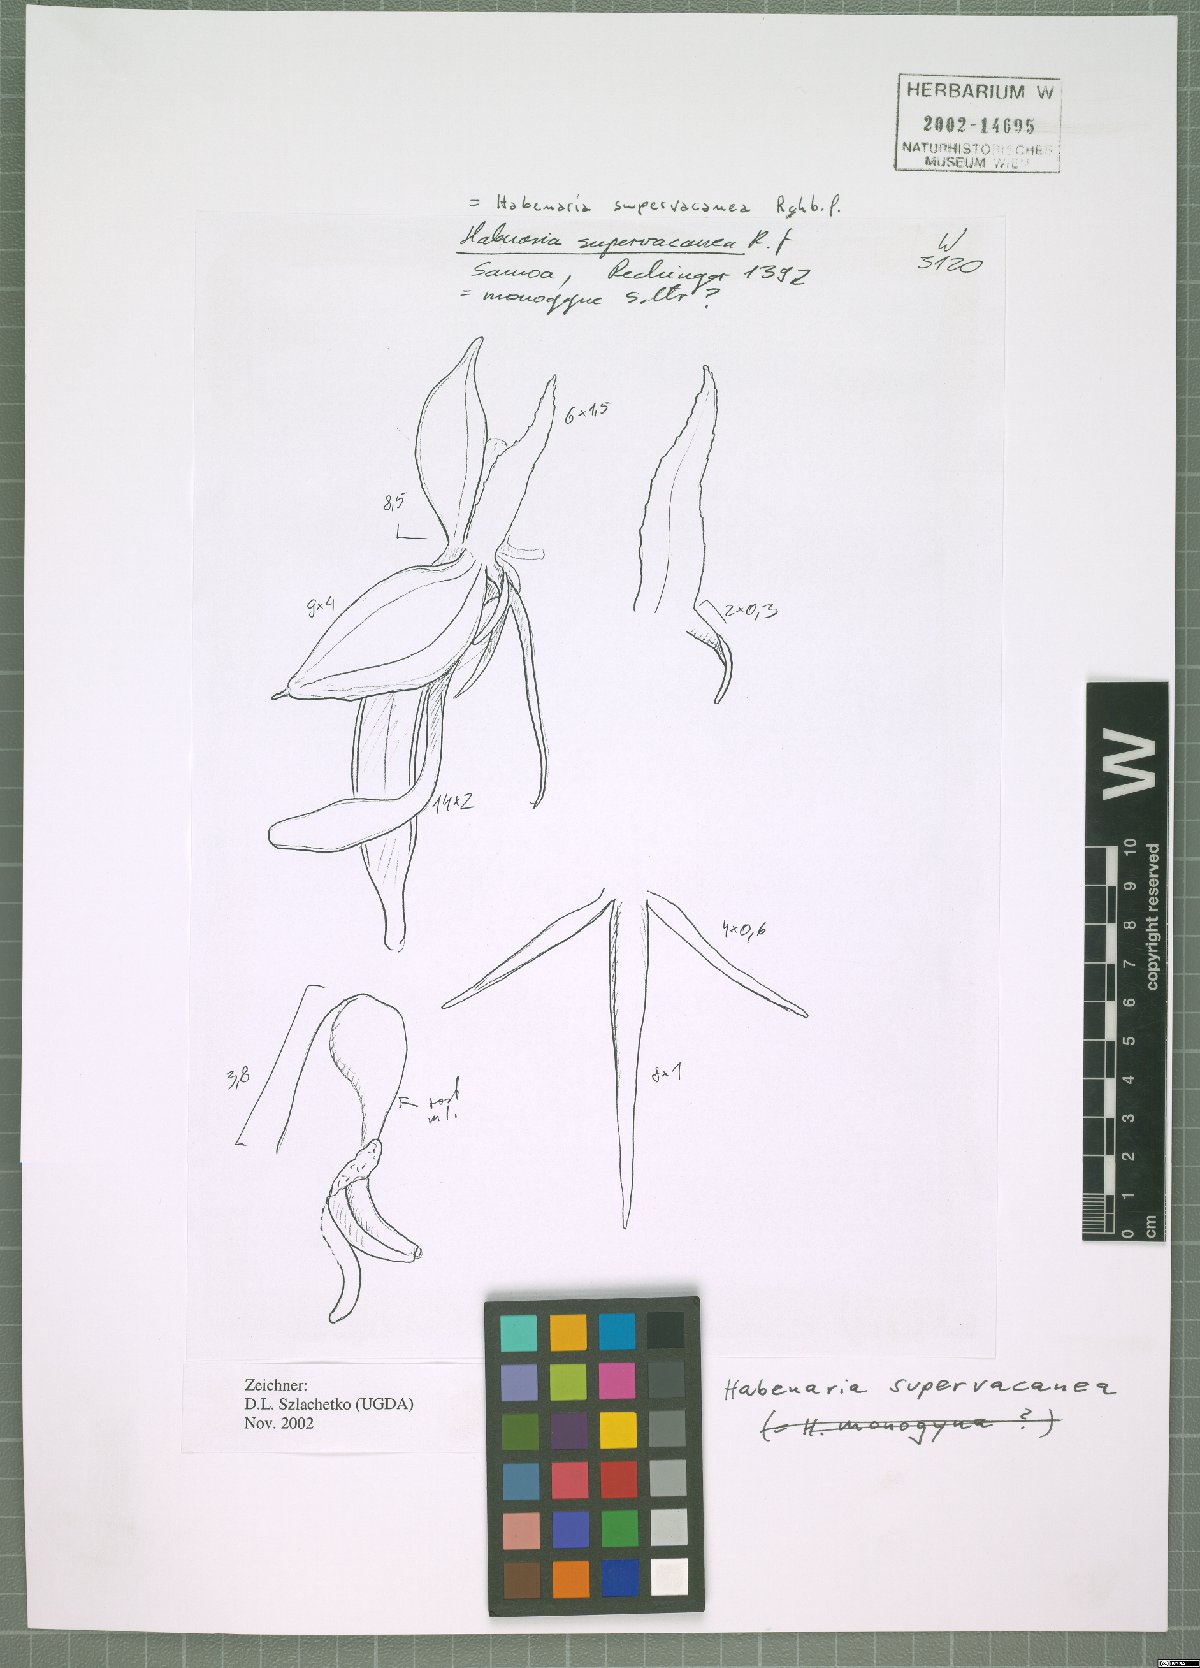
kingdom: Plantae
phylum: Tracheophyta
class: Liliopsida
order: Asparagales
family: Orchidaceae
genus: Habenaria
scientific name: Habenaria supervacanea
